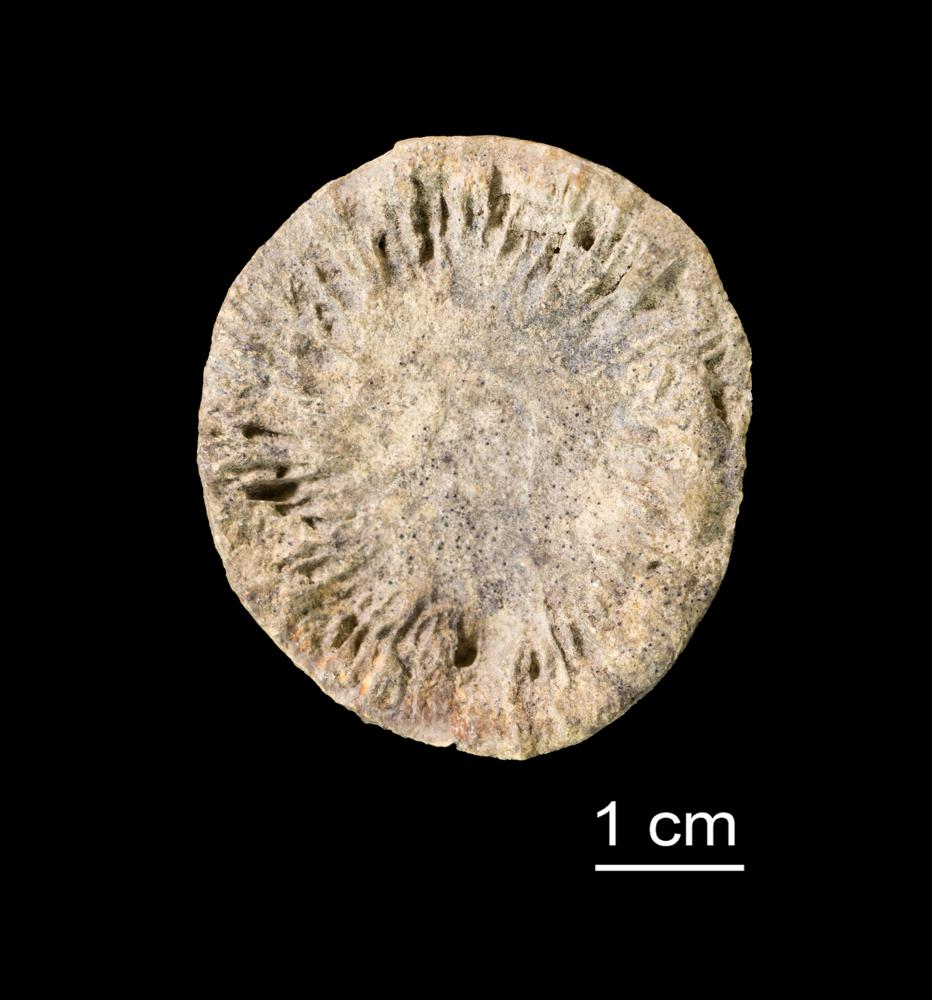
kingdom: Animalia
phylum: Cnidaria
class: Anthozoa
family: Streptelasmatidae
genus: Streptelasma
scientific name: Streptelasma corniculum
